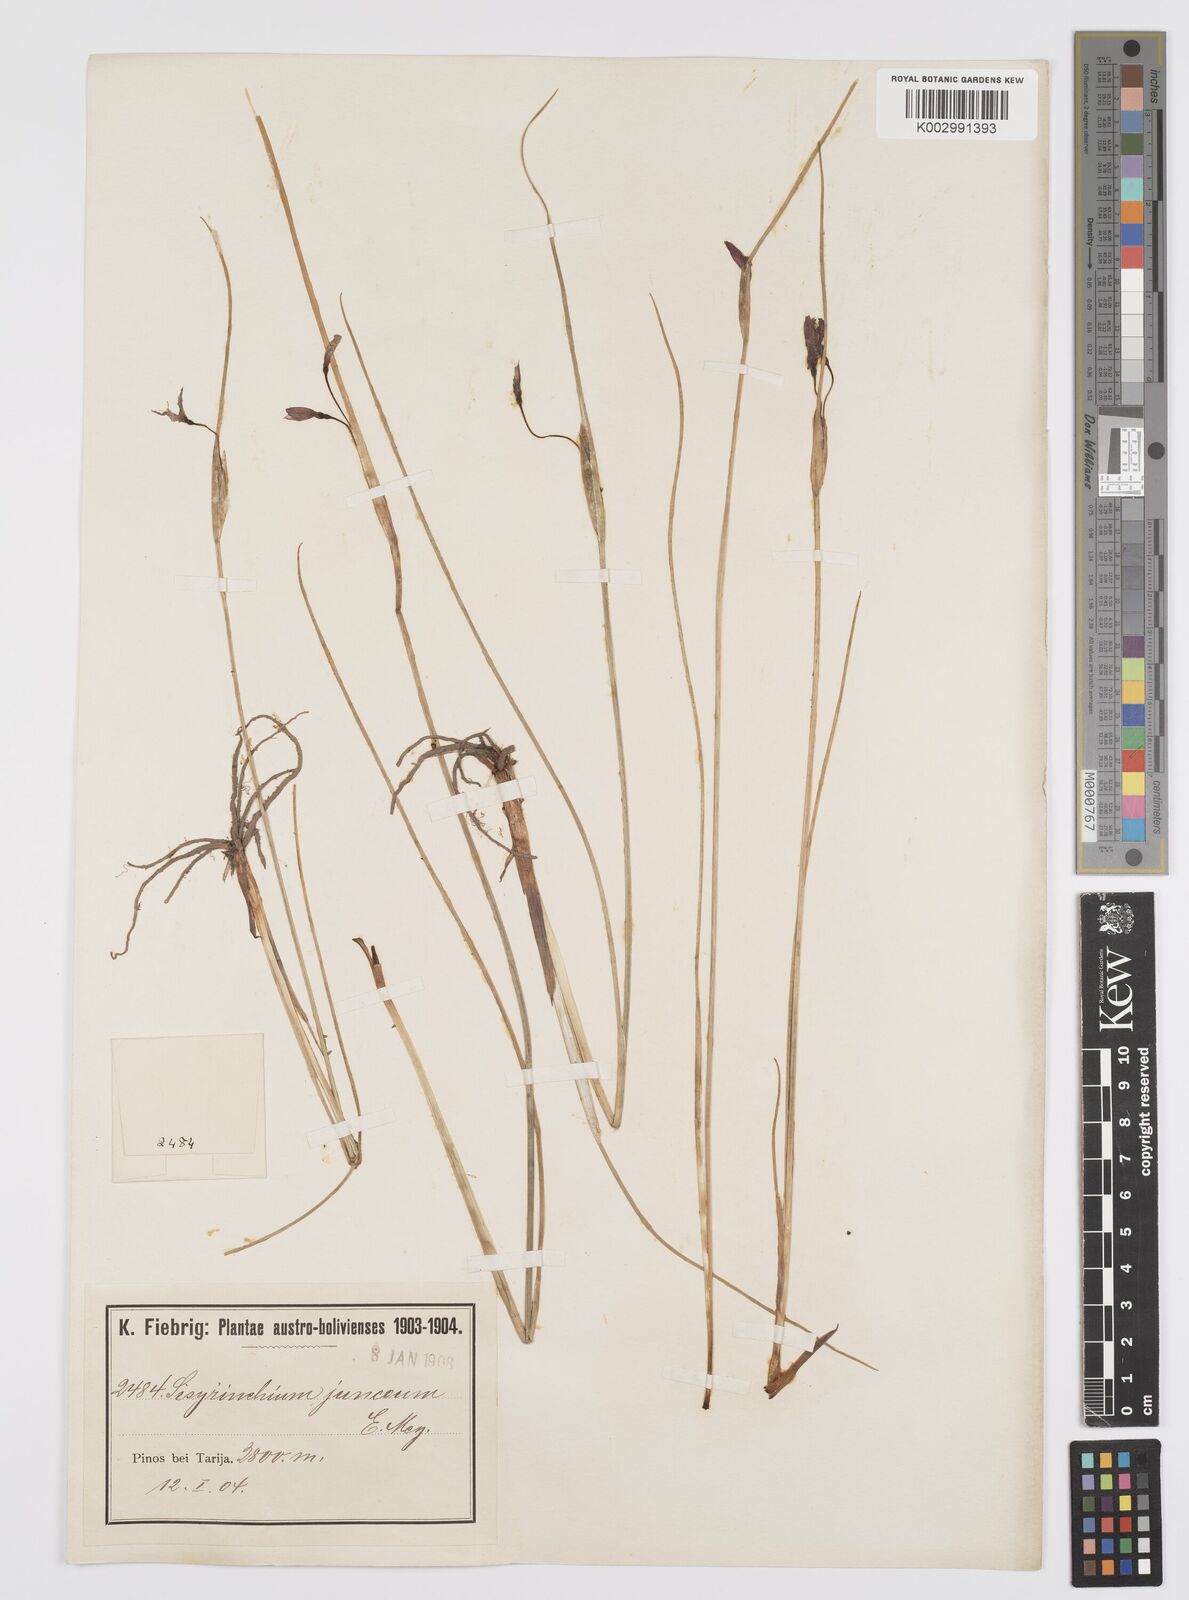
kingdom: Plantae
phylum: Tracheophyta
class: Liliopsida
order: Asparagales
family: Iridaceae
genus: Olsynium
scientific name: Olsynium junceum
